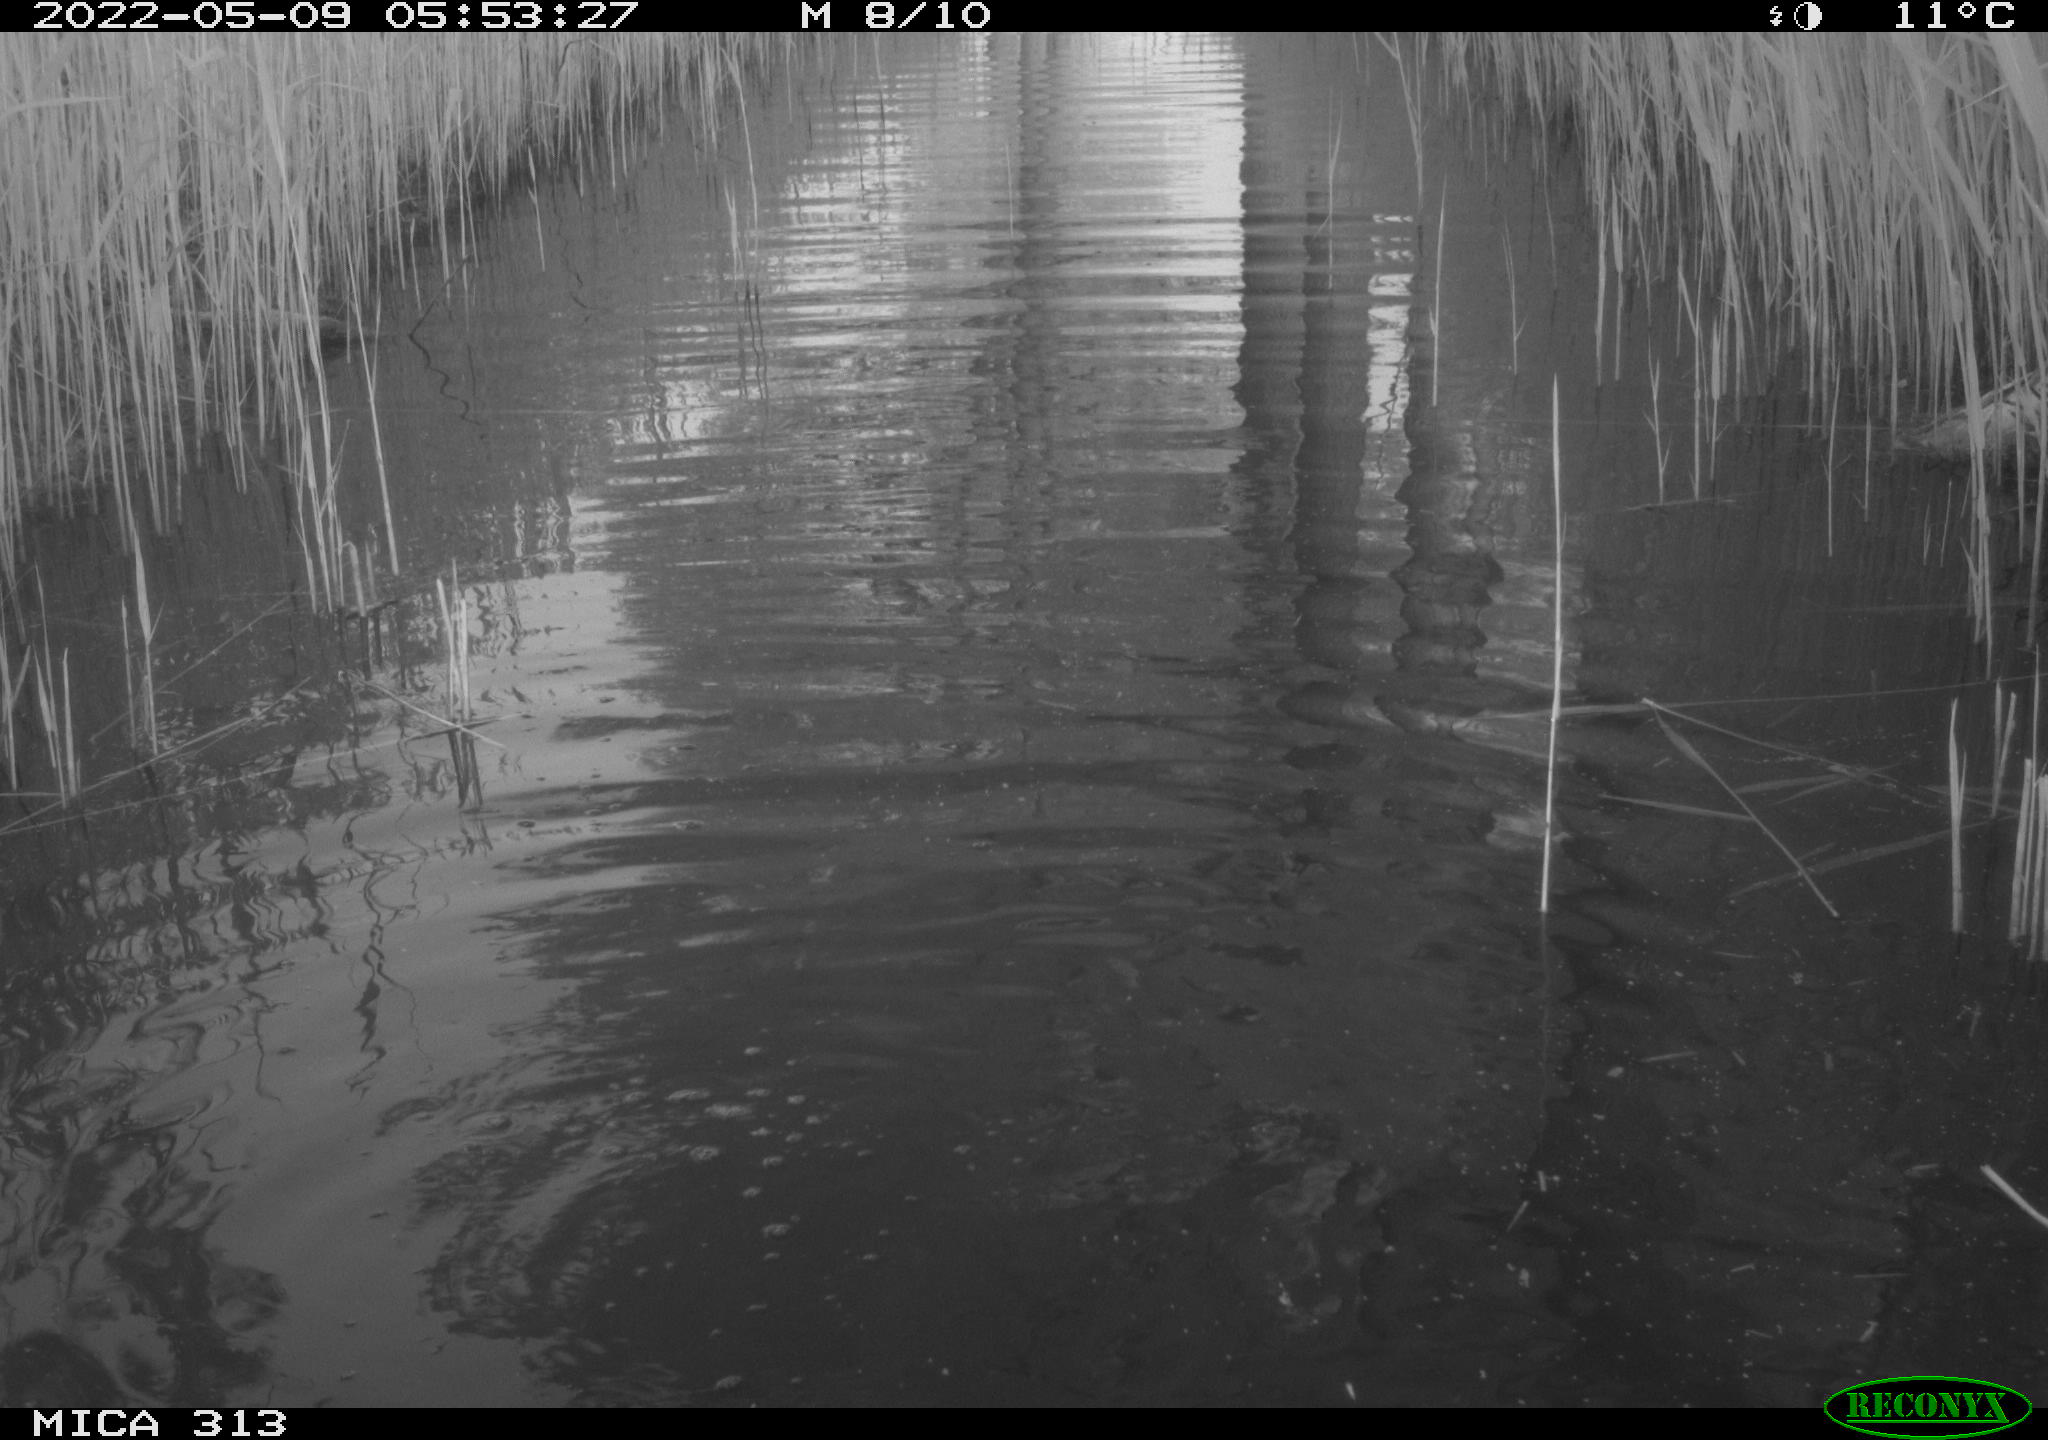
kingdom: Animalia
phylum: Chordata
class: Aves
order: Anseriformes
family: Anatidae
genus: Anas
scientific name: Anas platyrhynchos
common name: Mallard
